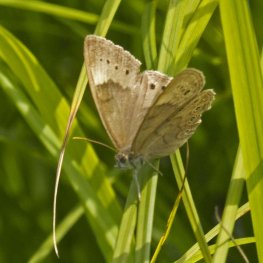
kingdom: Animalia
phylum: Arthropoda
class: Insecta
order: Lepidoptera
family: Nymphalidae
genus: Lethe
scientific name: Lethe eurydice
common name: Eyed Brown
